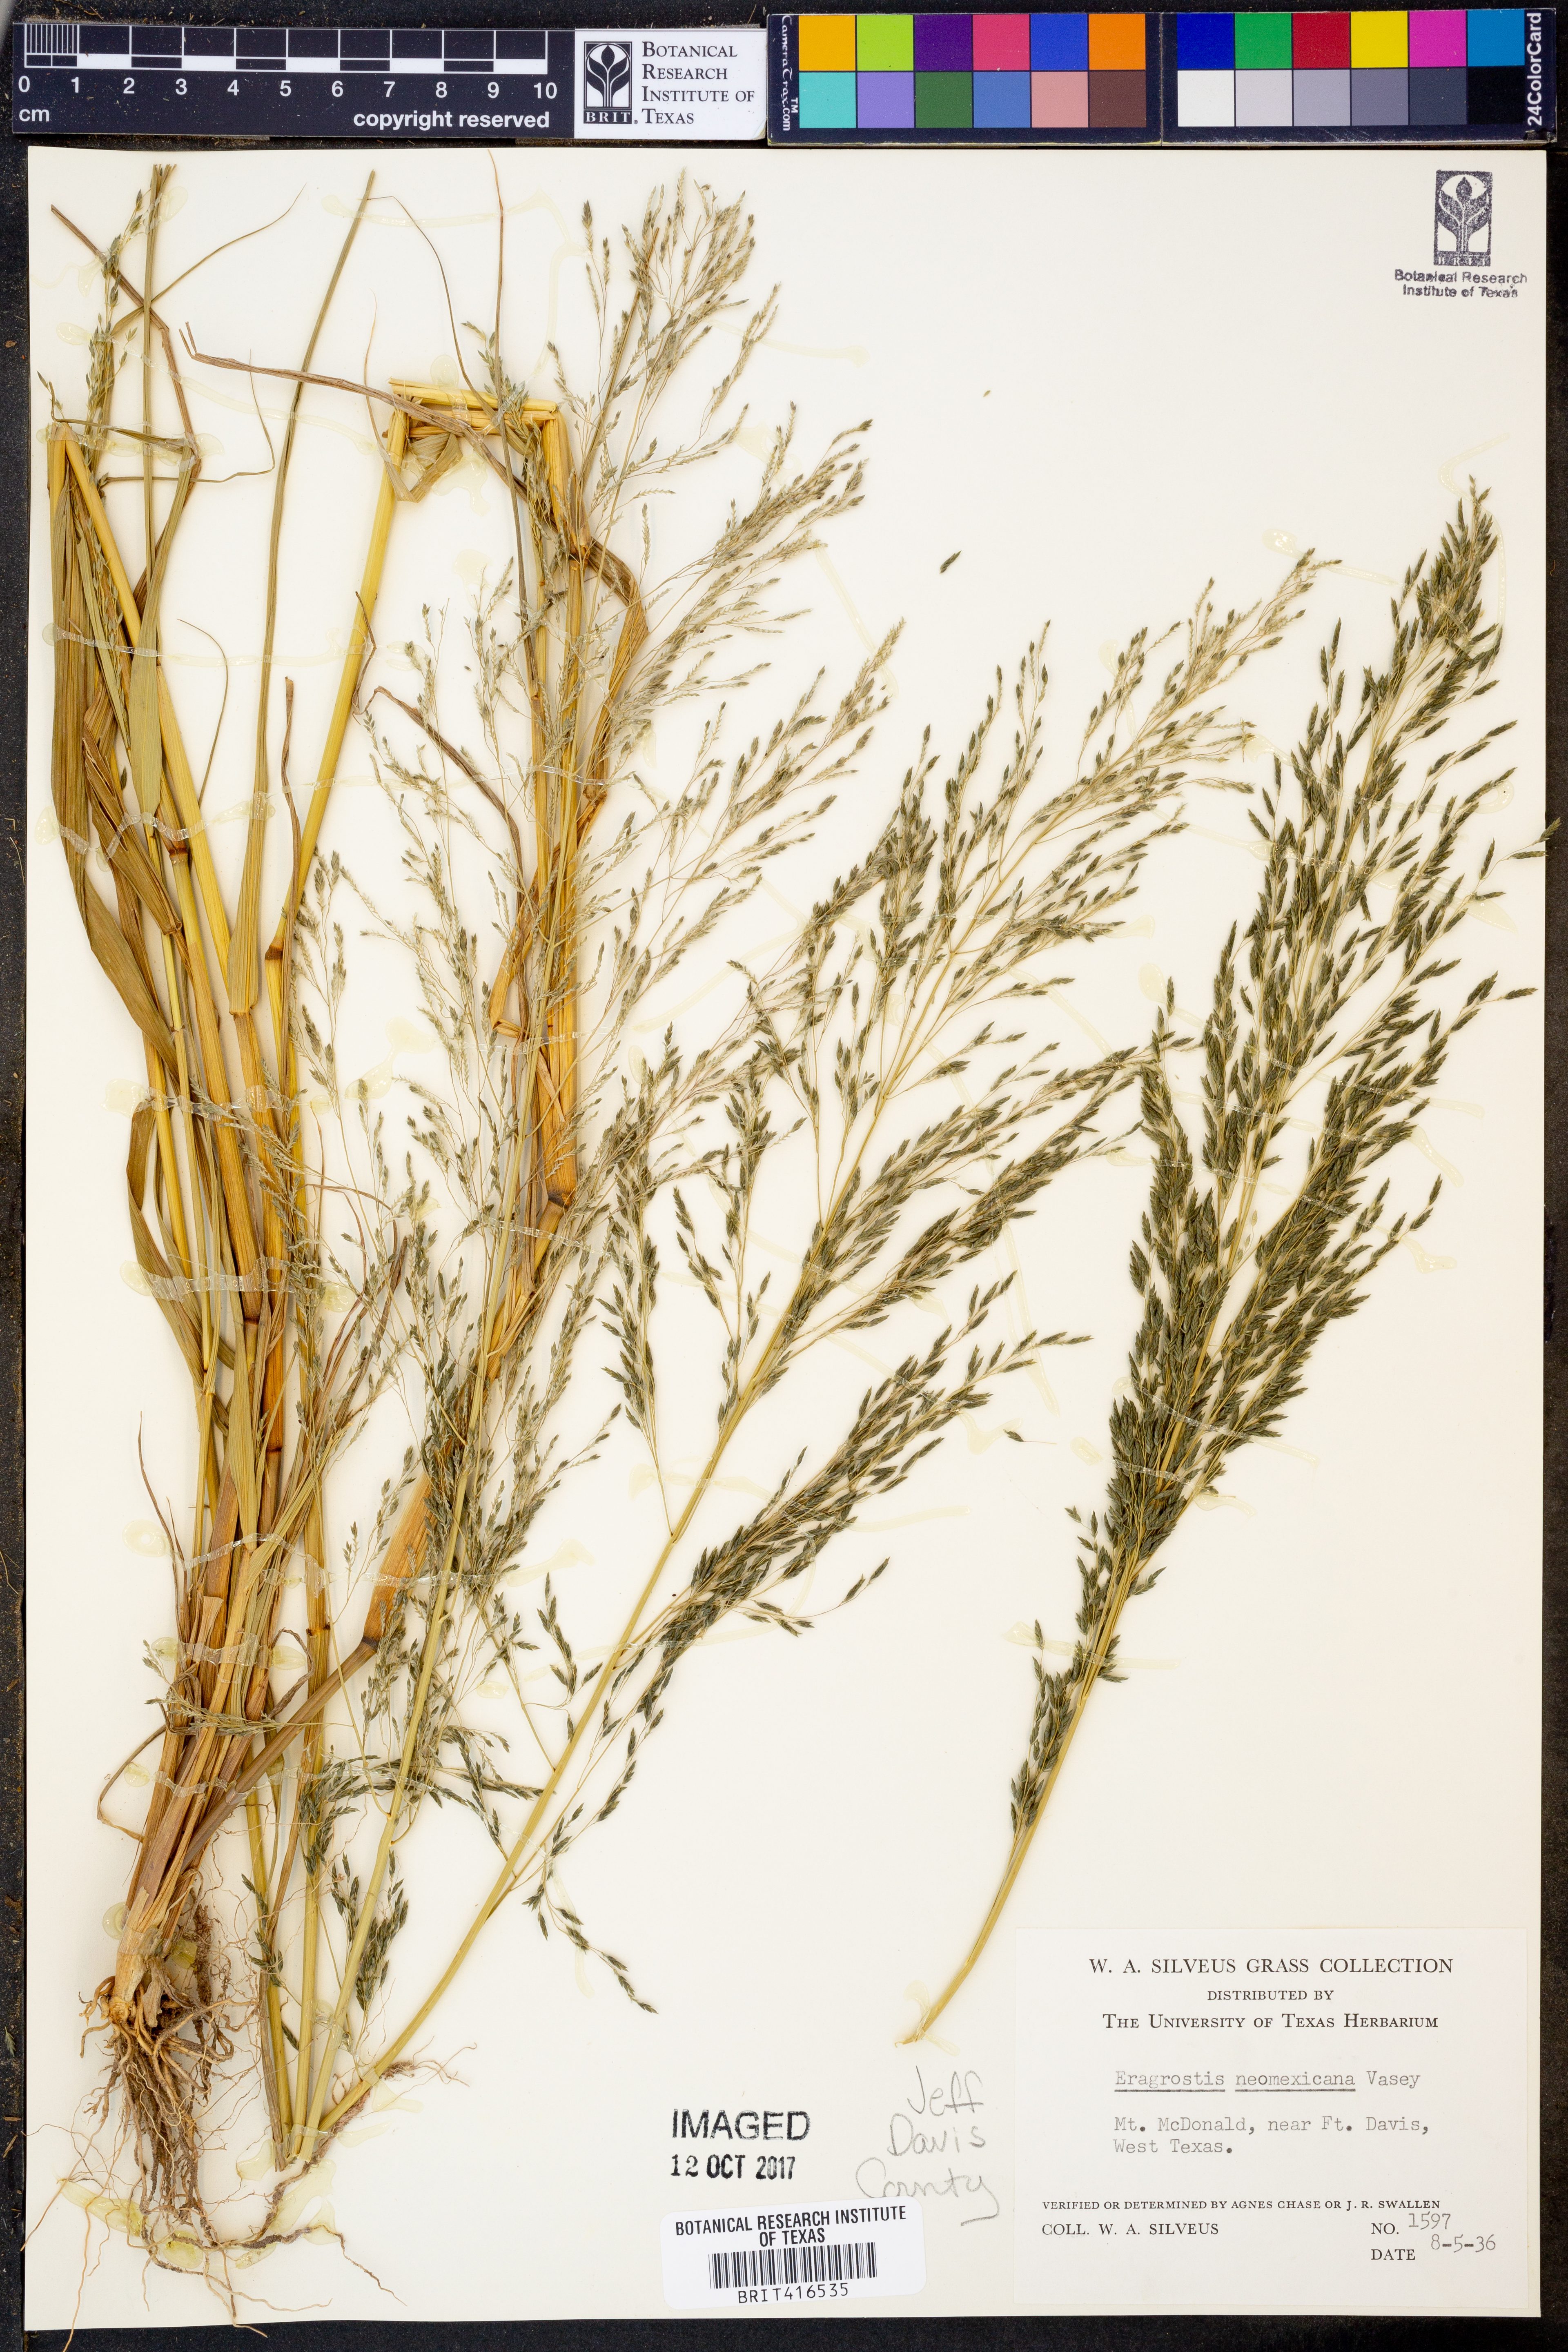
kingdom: Plantae
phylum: Tracheophyta
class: Liliopsida
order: Poales
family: Poaceae
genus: Eragrostis
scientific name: Eragrostis mexicana
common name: Mexican love grass
